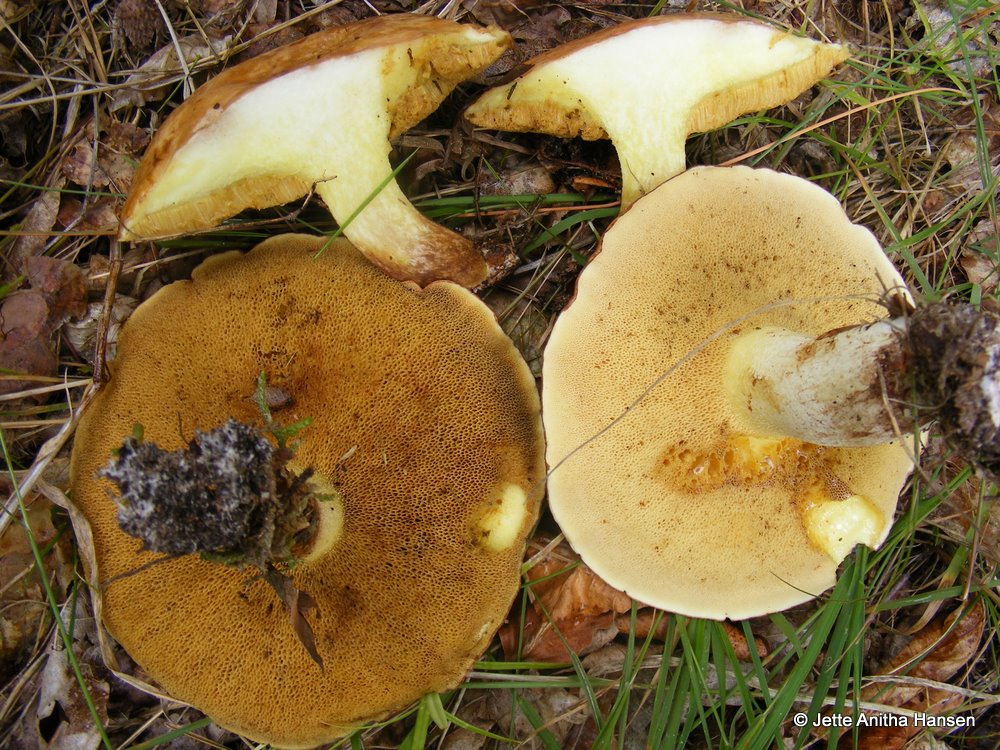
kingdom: Fungi
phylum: Basidiomycota
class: Agaricomycetes
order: Boletales
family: Suillaceae
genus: Suillus
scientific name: Suillus bovinus
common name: grovporet slimrørhat
